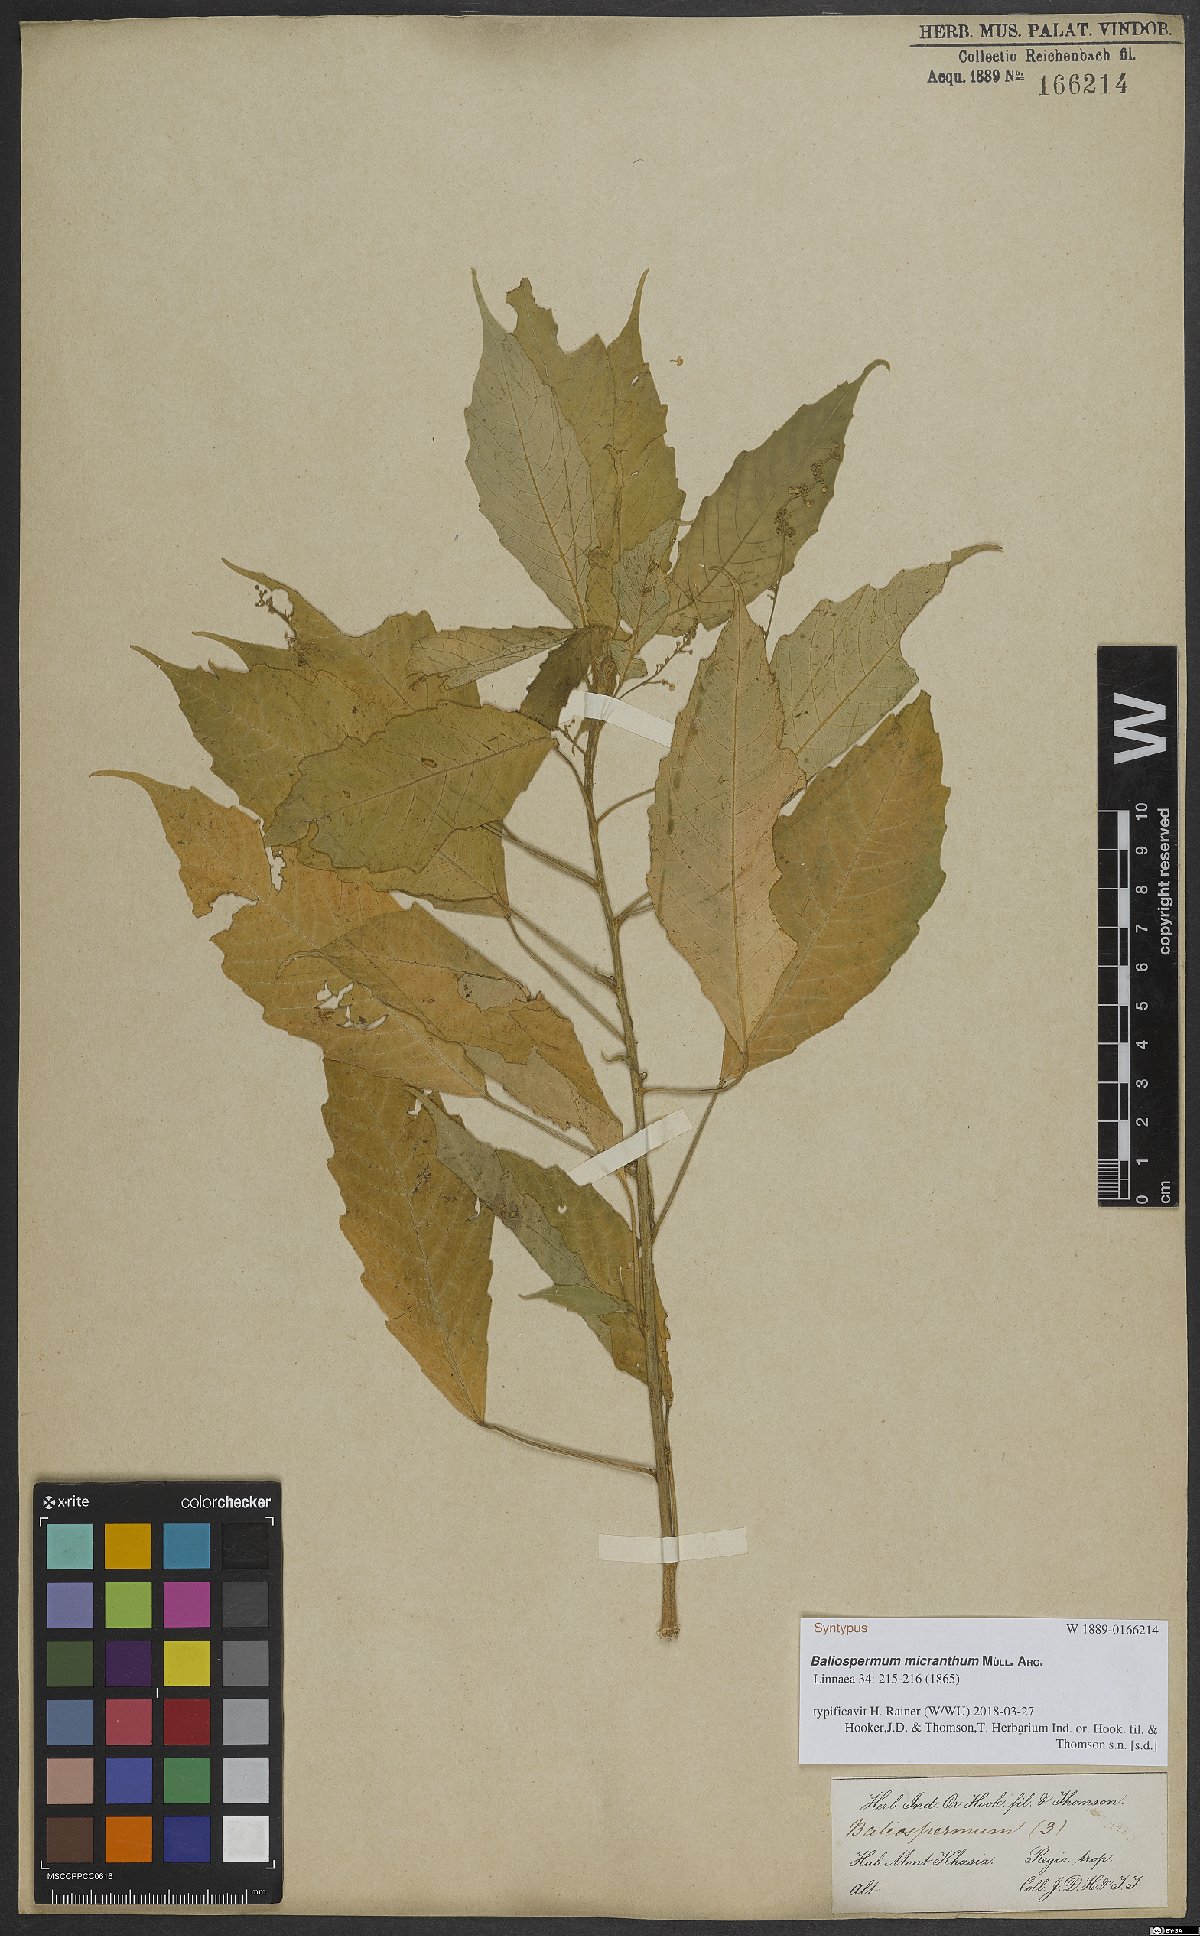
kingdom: Plantae
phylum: Tracheophyta
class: Magnoliopsida
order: Malpighiales
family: Euphorbiaceae
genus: Baliospermum
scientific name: Baliospermum calycinum
